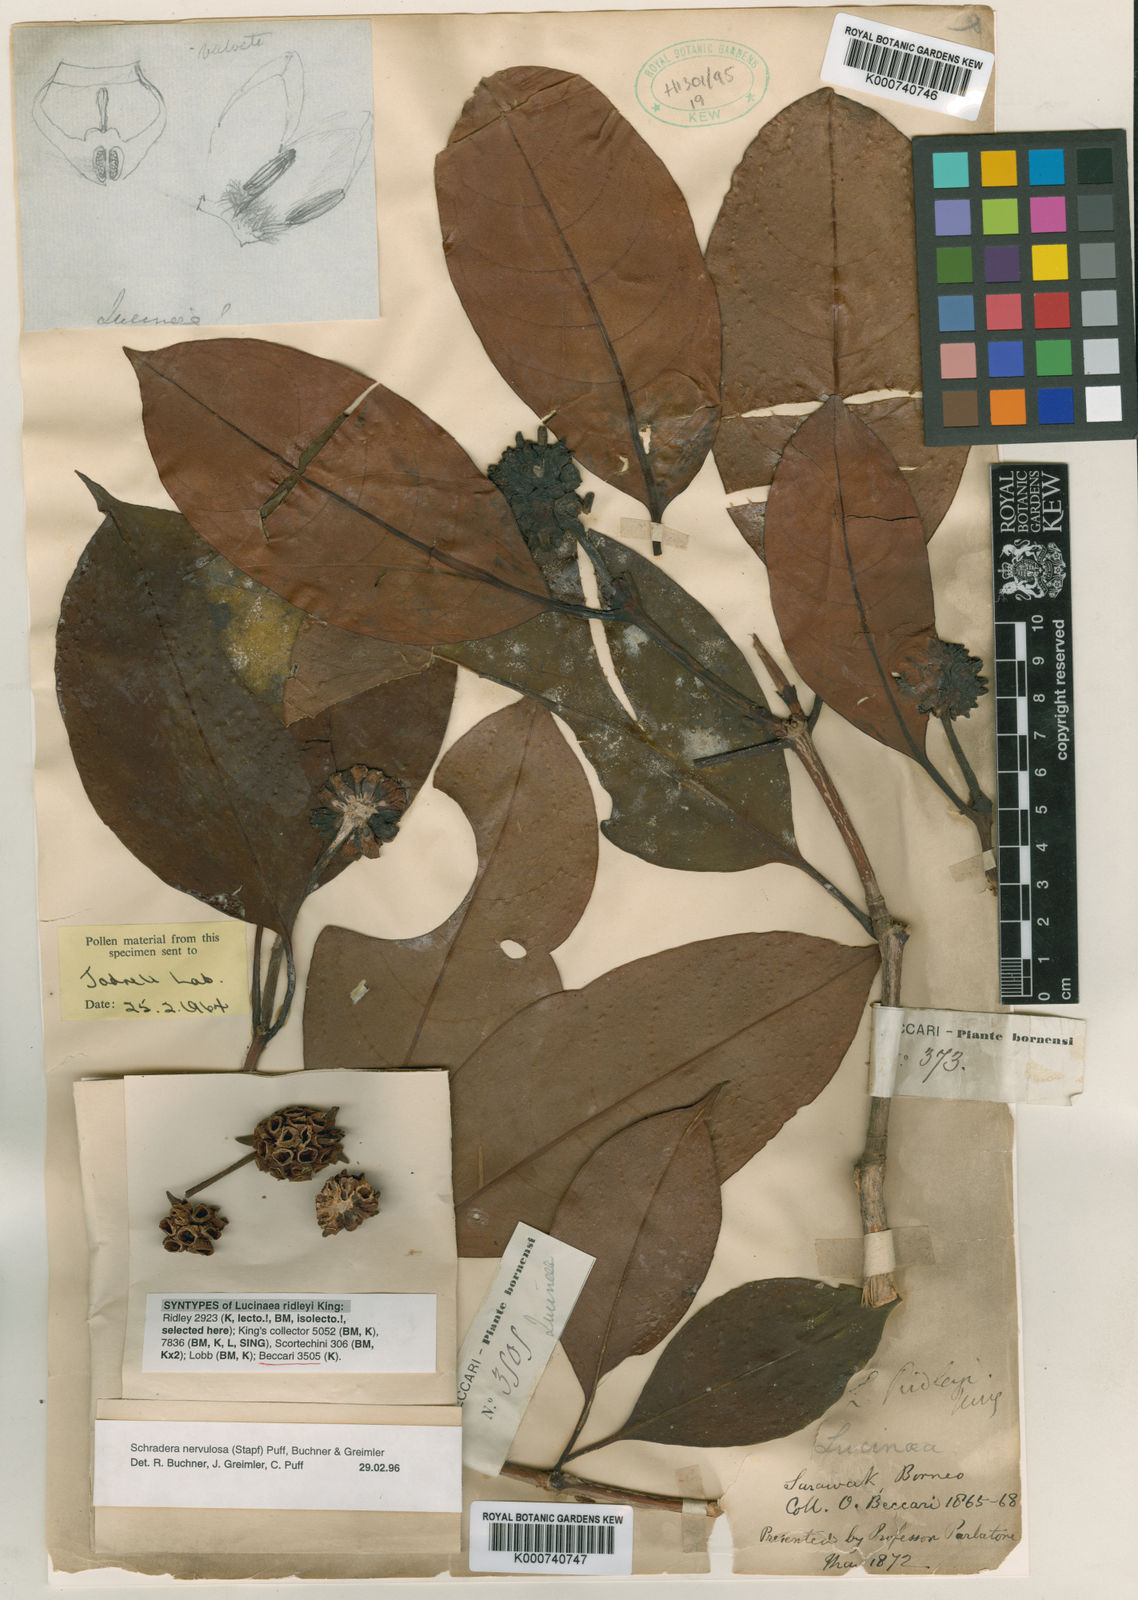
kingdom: Plantae
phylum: Tracheophyta
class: Magnoliopsida
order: Gentianales
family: Rubiaceae
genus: Schradera
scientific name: Schradera nervulosa
